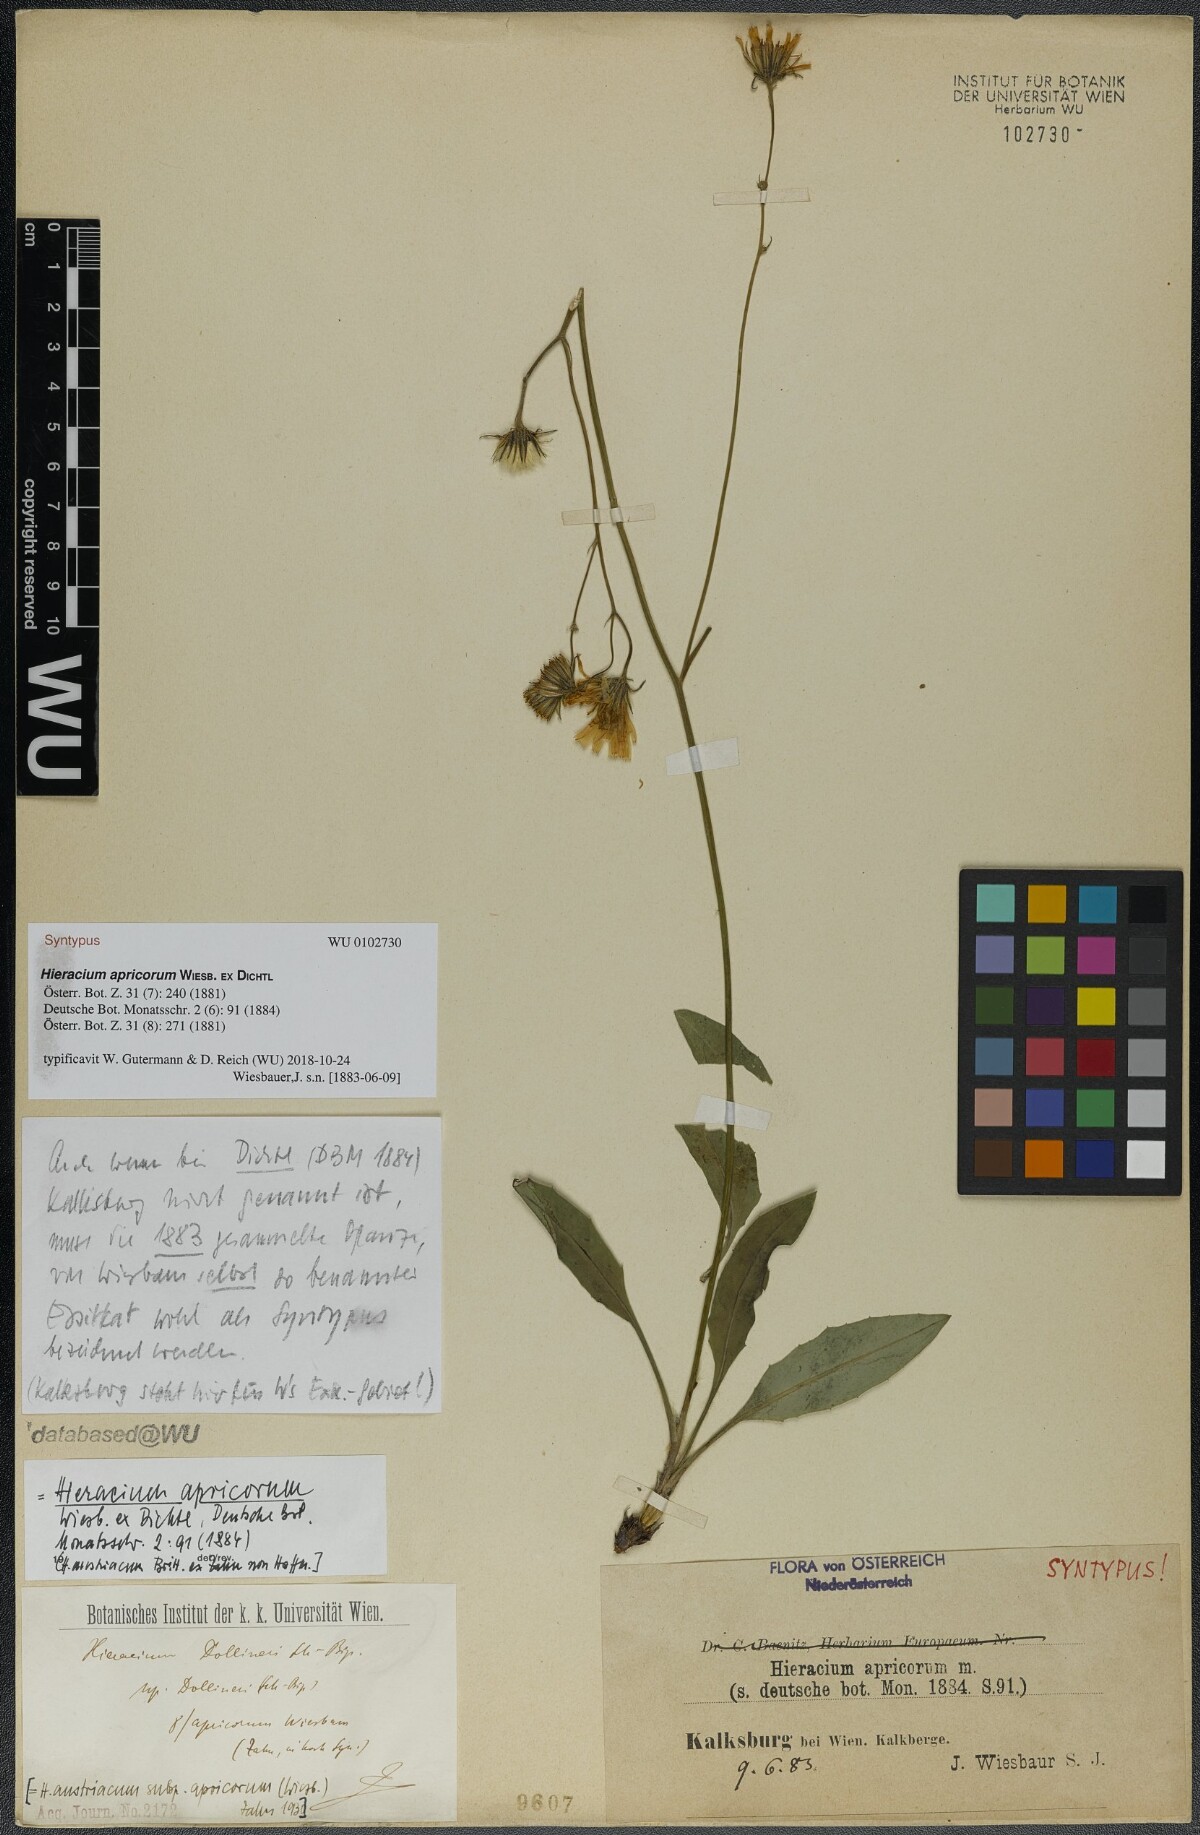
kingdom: Plantae
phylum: Tracheophyta
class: Magnoliopsida
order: Asterales
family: Asteraceae
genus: Hieracium
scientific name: Hieracium apricorum
